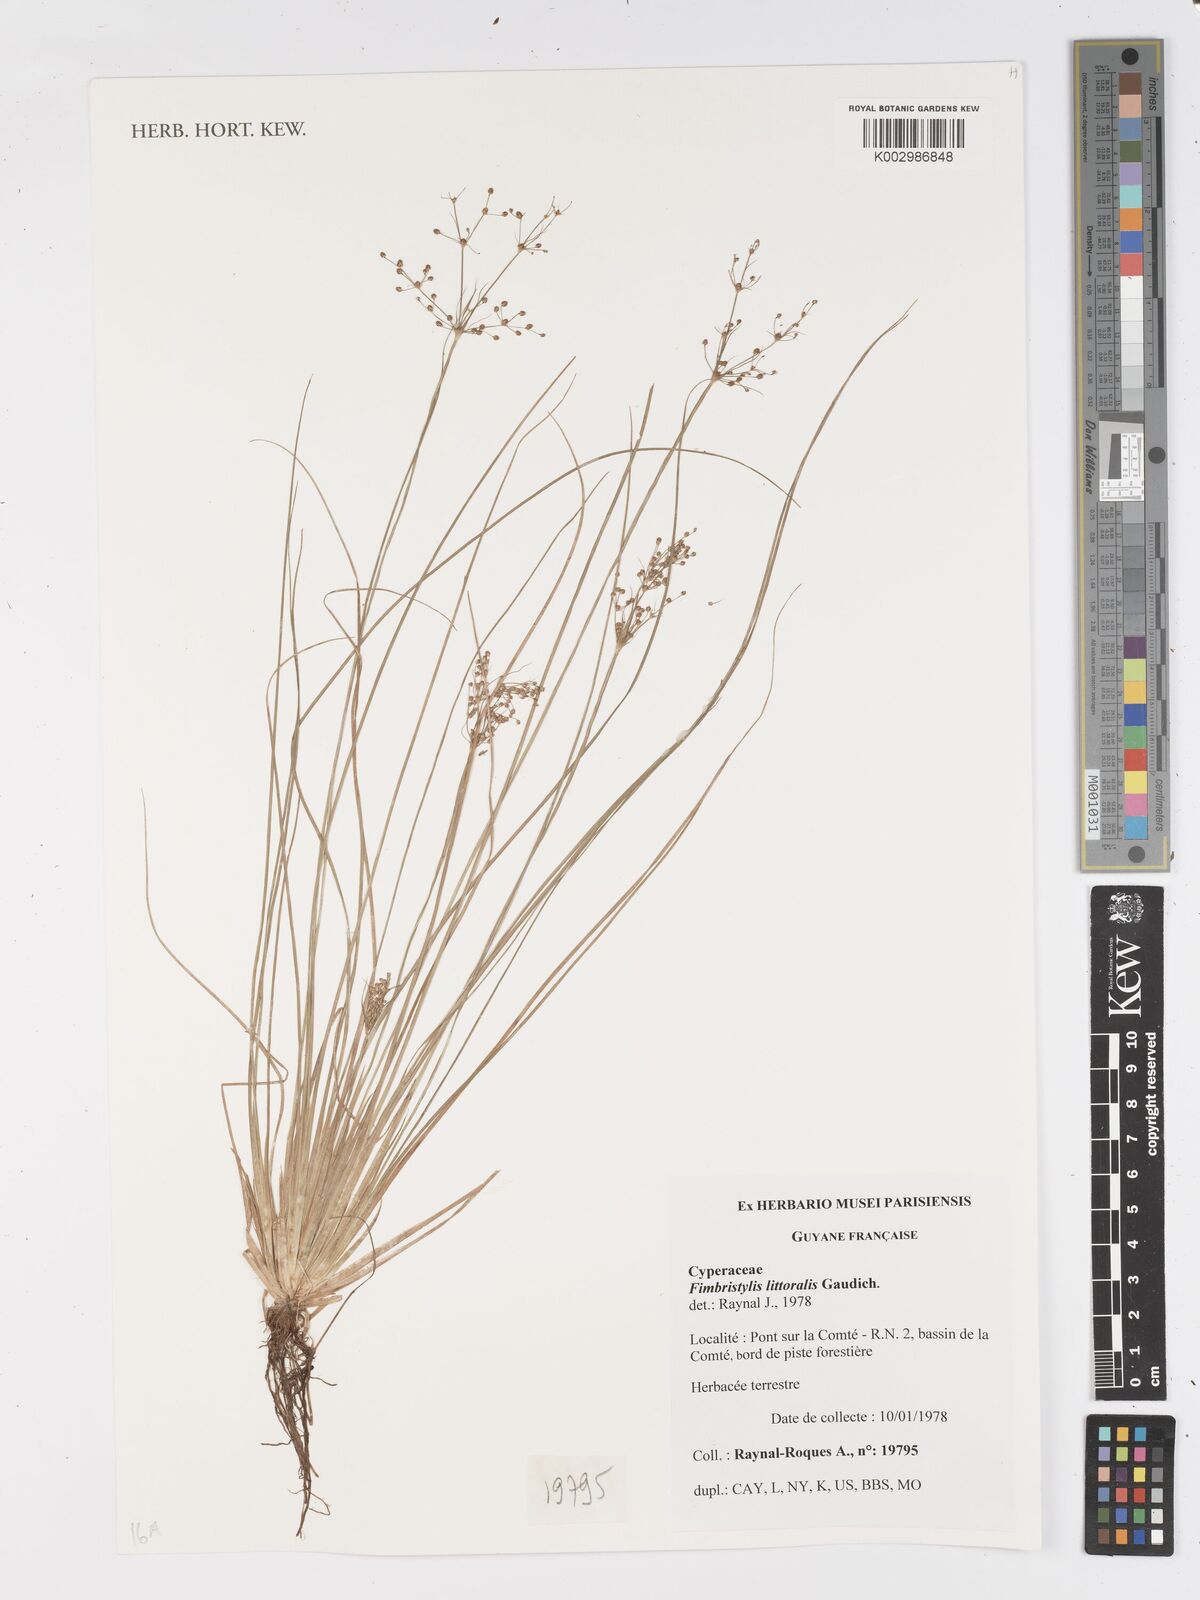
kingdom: Plantae
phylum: Tracheophyta
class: Liliopsida
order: Poales
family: Cyperaceae
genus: Fimbristylis
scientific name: Fimbristylis littoralis
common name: Fimbry
